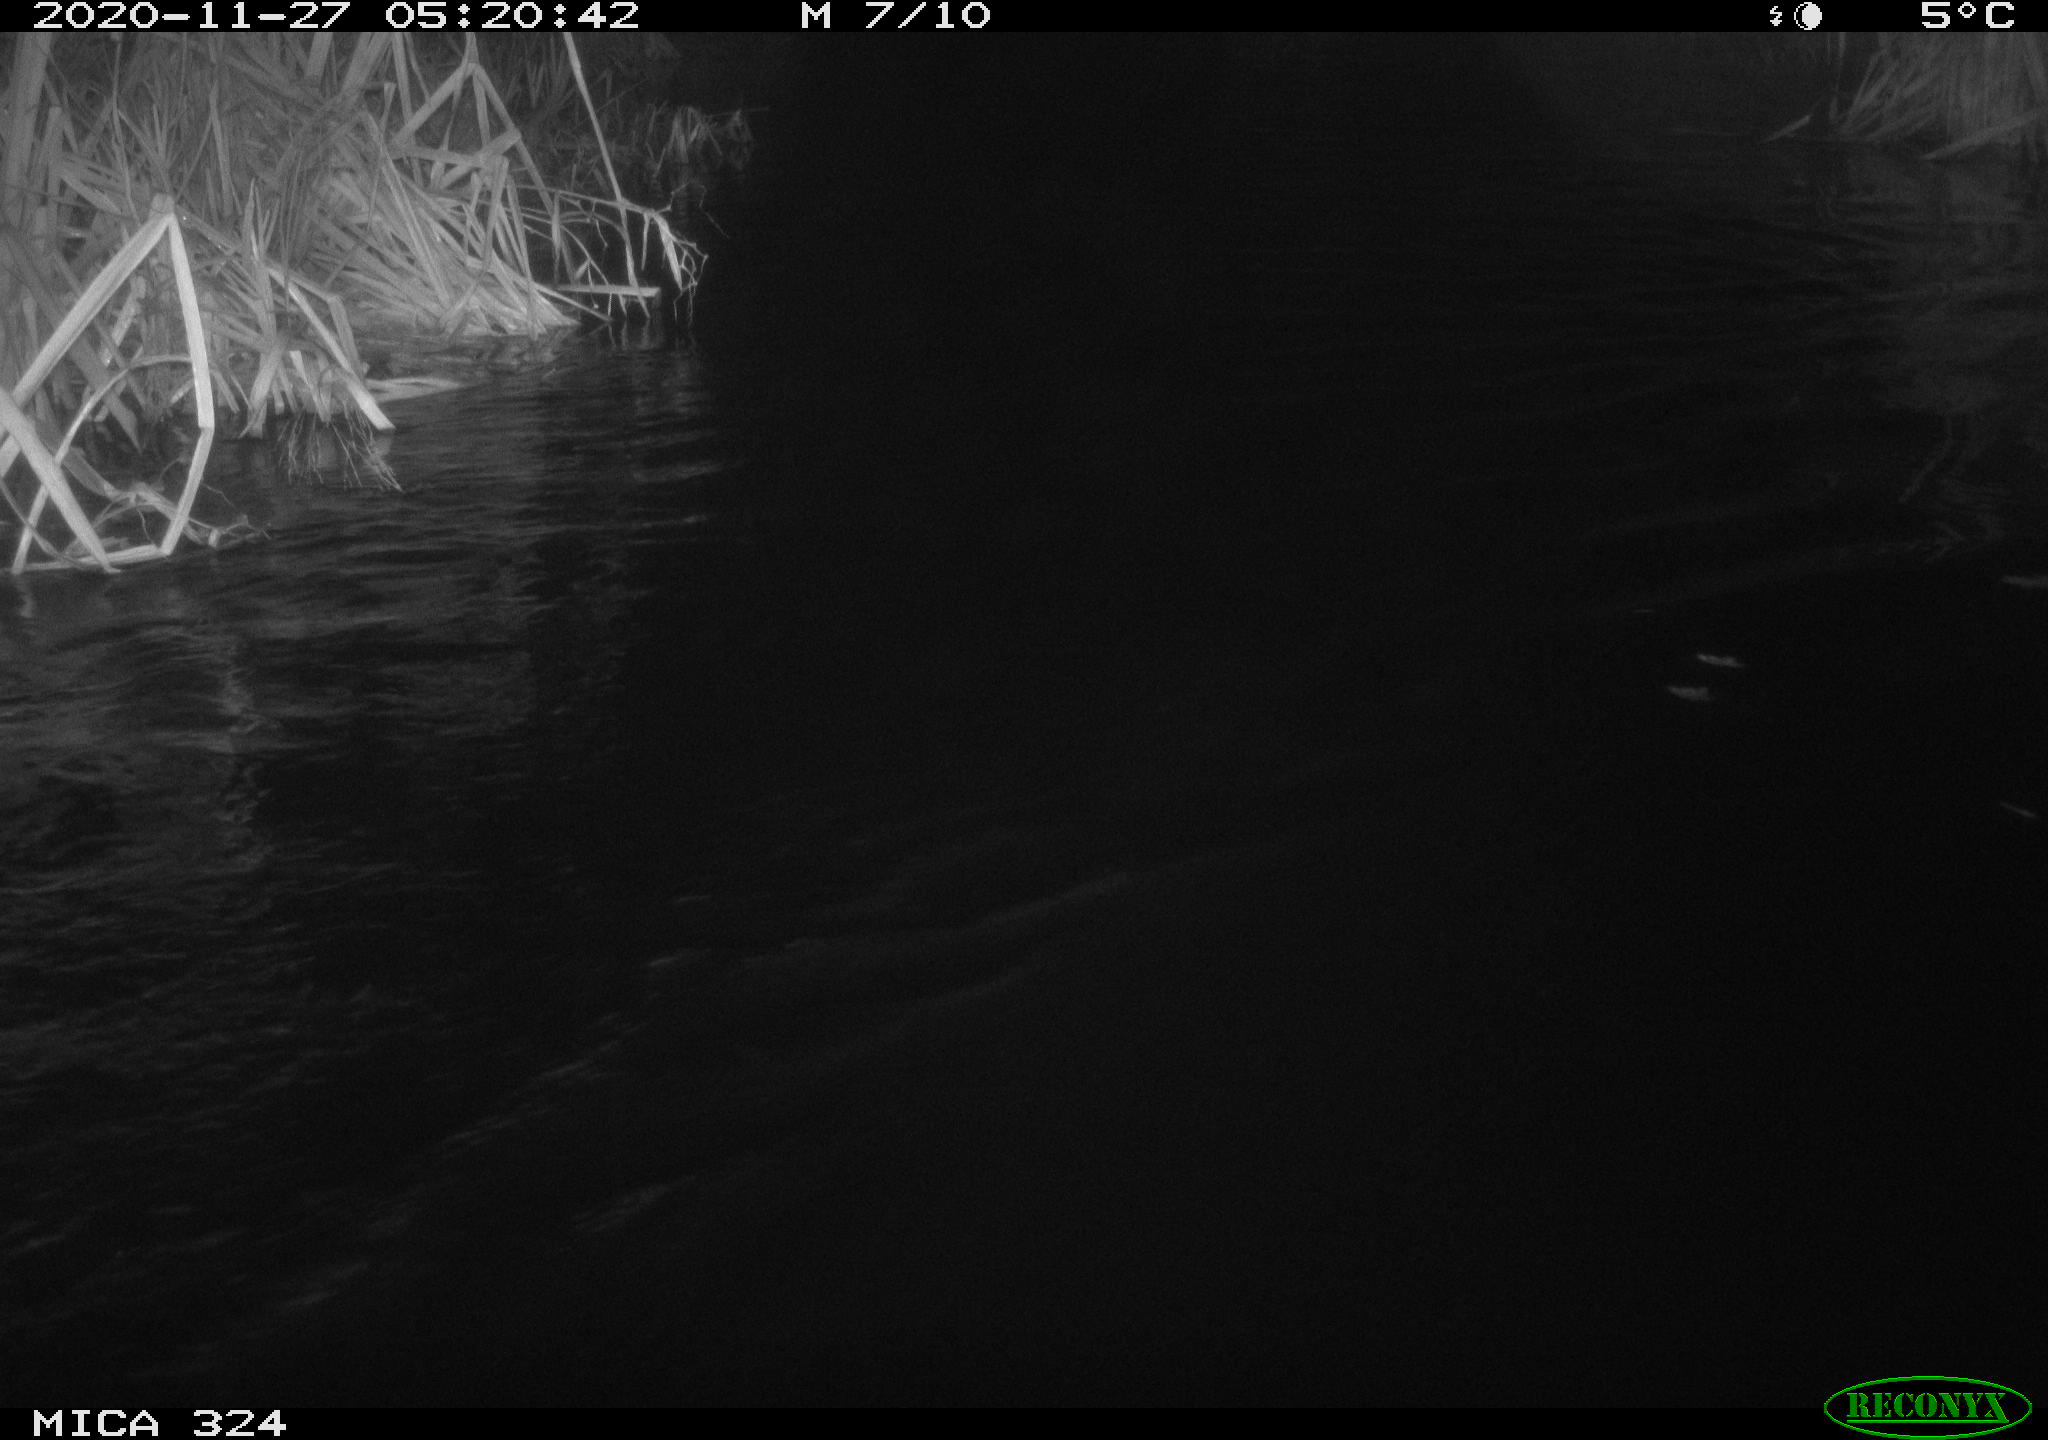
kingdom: Animalia
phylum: Chordata
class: Mammalia
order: Rodentia
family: Myocastoridae
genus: Myocastor
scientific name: Myocastor coypus
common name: Coypu
